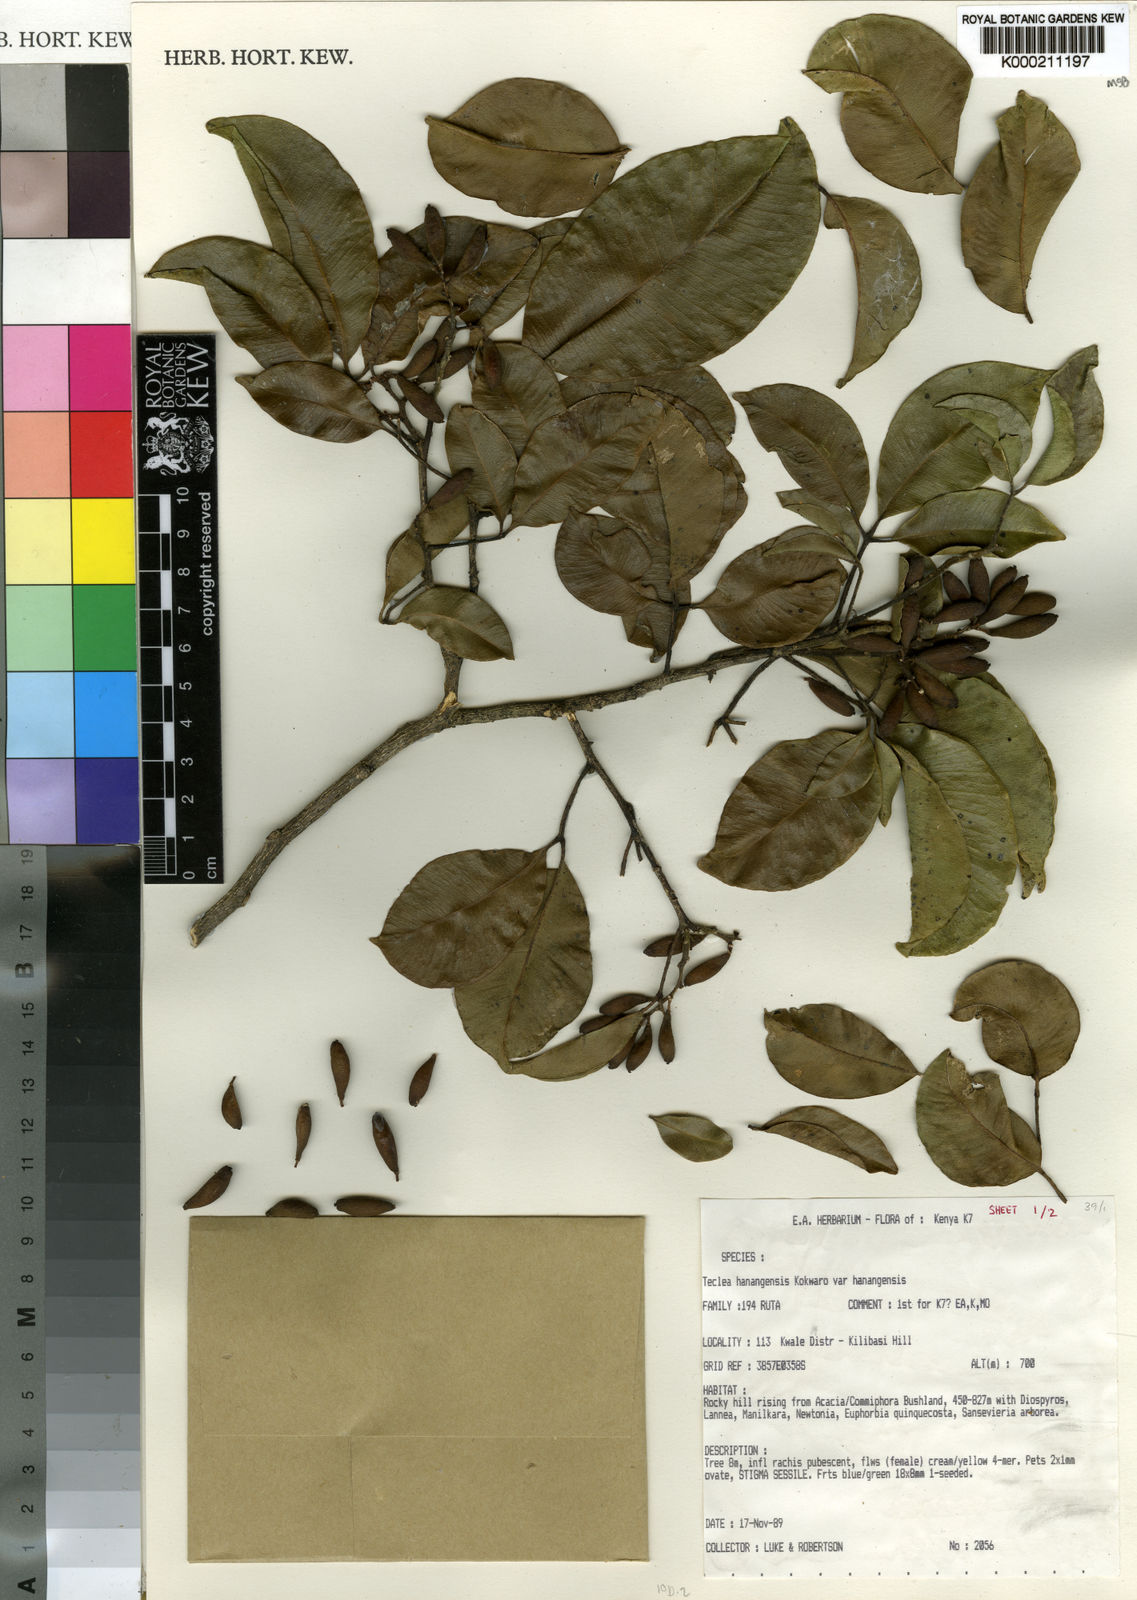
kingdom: Plantae
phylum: Tracheophyta
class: Magnoliopsida
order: Sapindales
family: Rutaceae
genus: Vepris
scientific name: Vepris hanangensis
